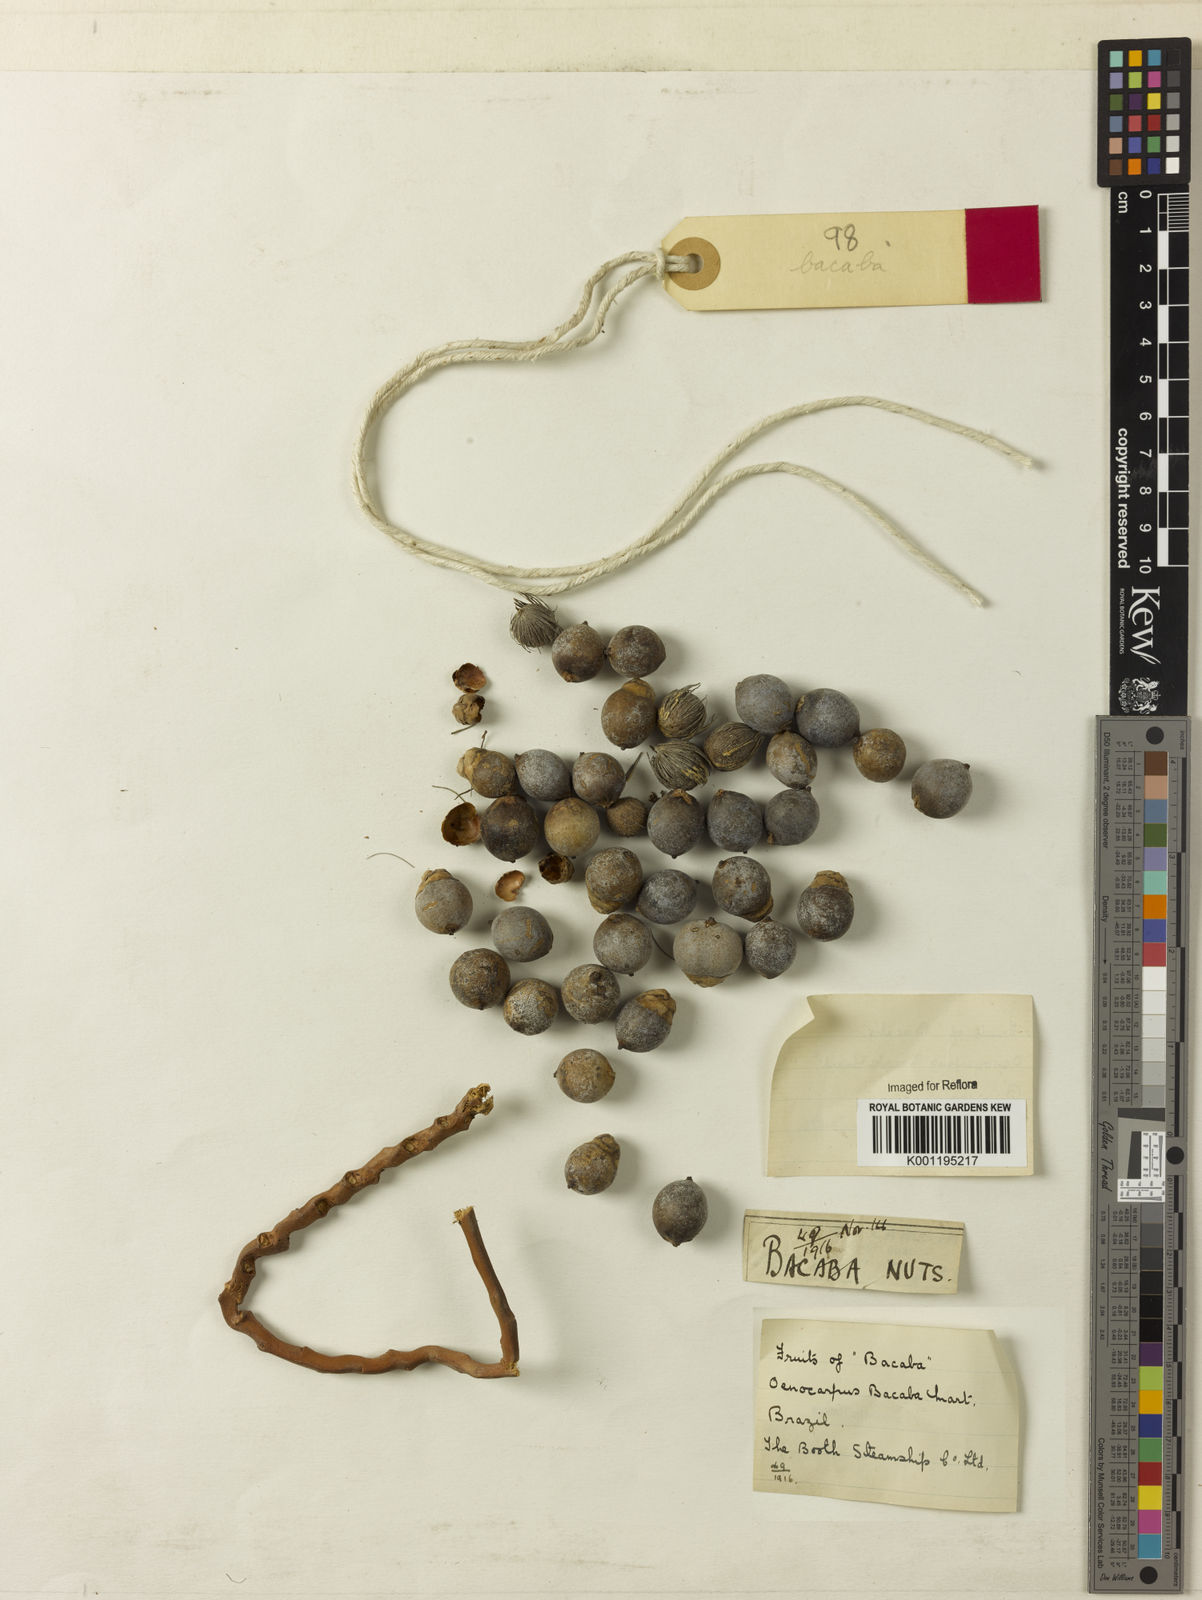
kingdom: Plantae
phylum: Tracheophyta
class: Liliopsida
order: Arecales
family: Arecaceae
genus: Oenocarpus
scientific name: Oenocarpus bataua
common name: Bataua palm
